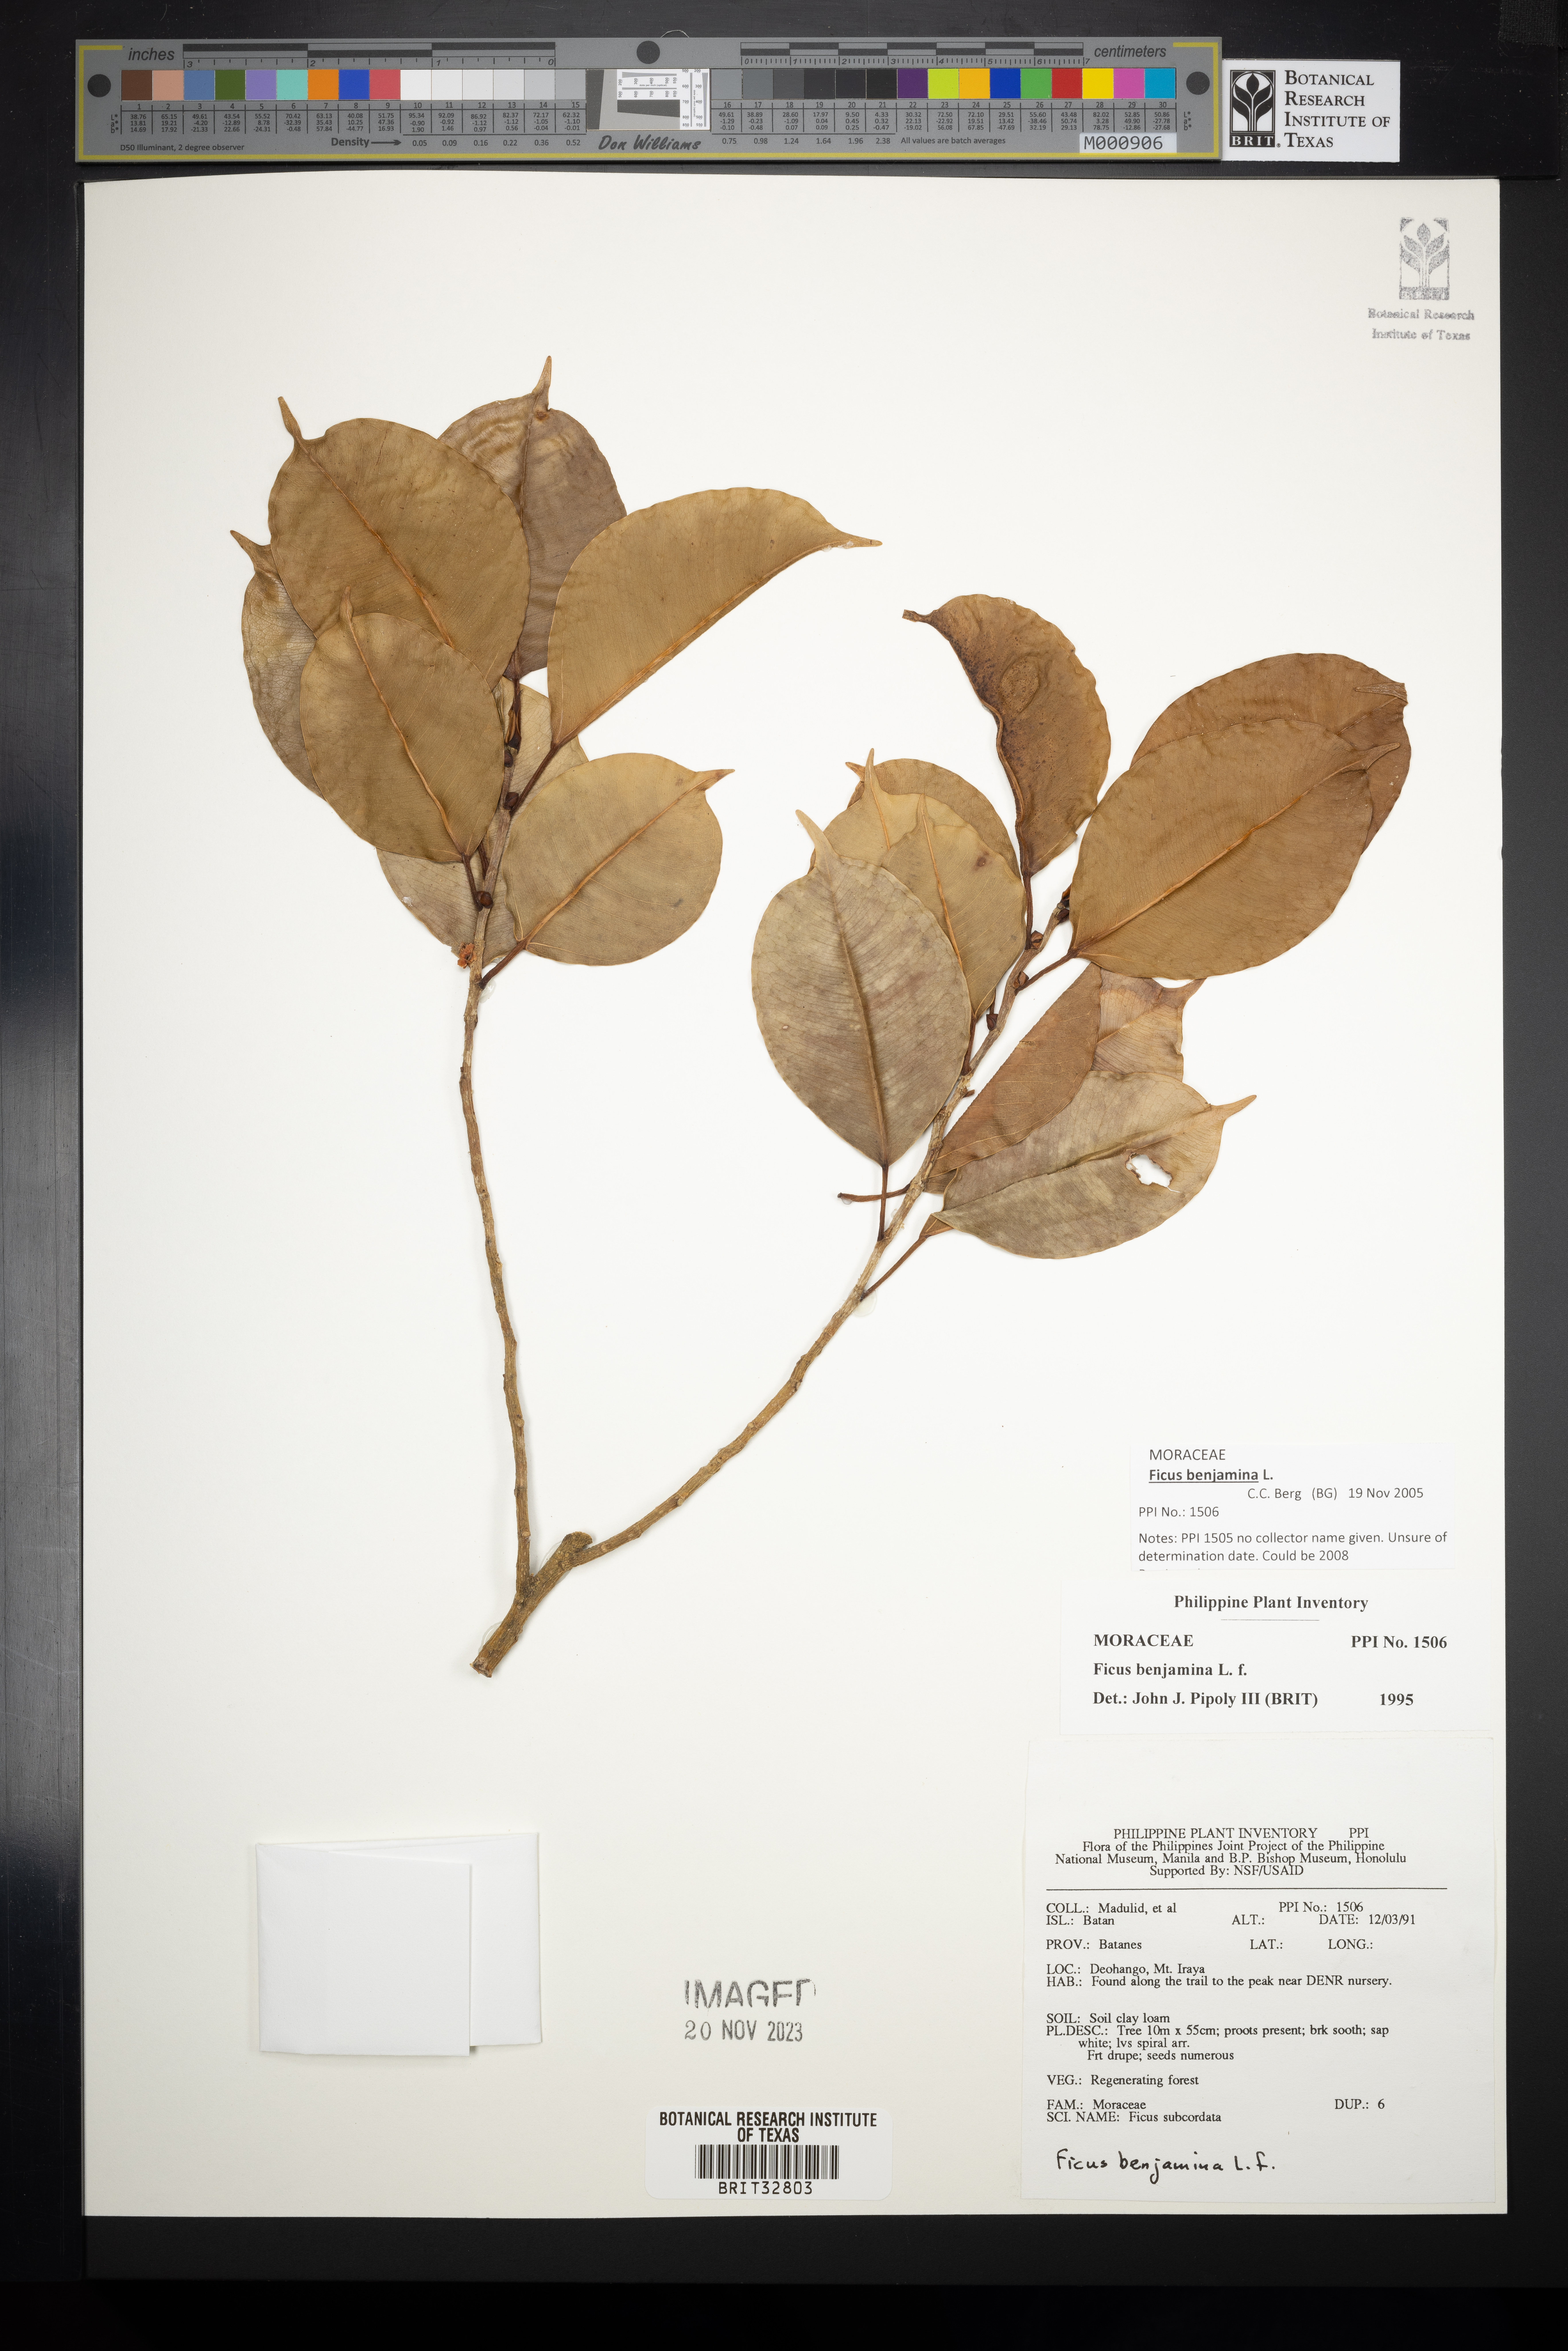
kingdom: Plantae
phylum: Tracheophyta
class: Magnoliopsida
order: Rosales
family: Moraceae
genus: Ficus
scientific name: Ficus benjamina
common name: Weeping fig
